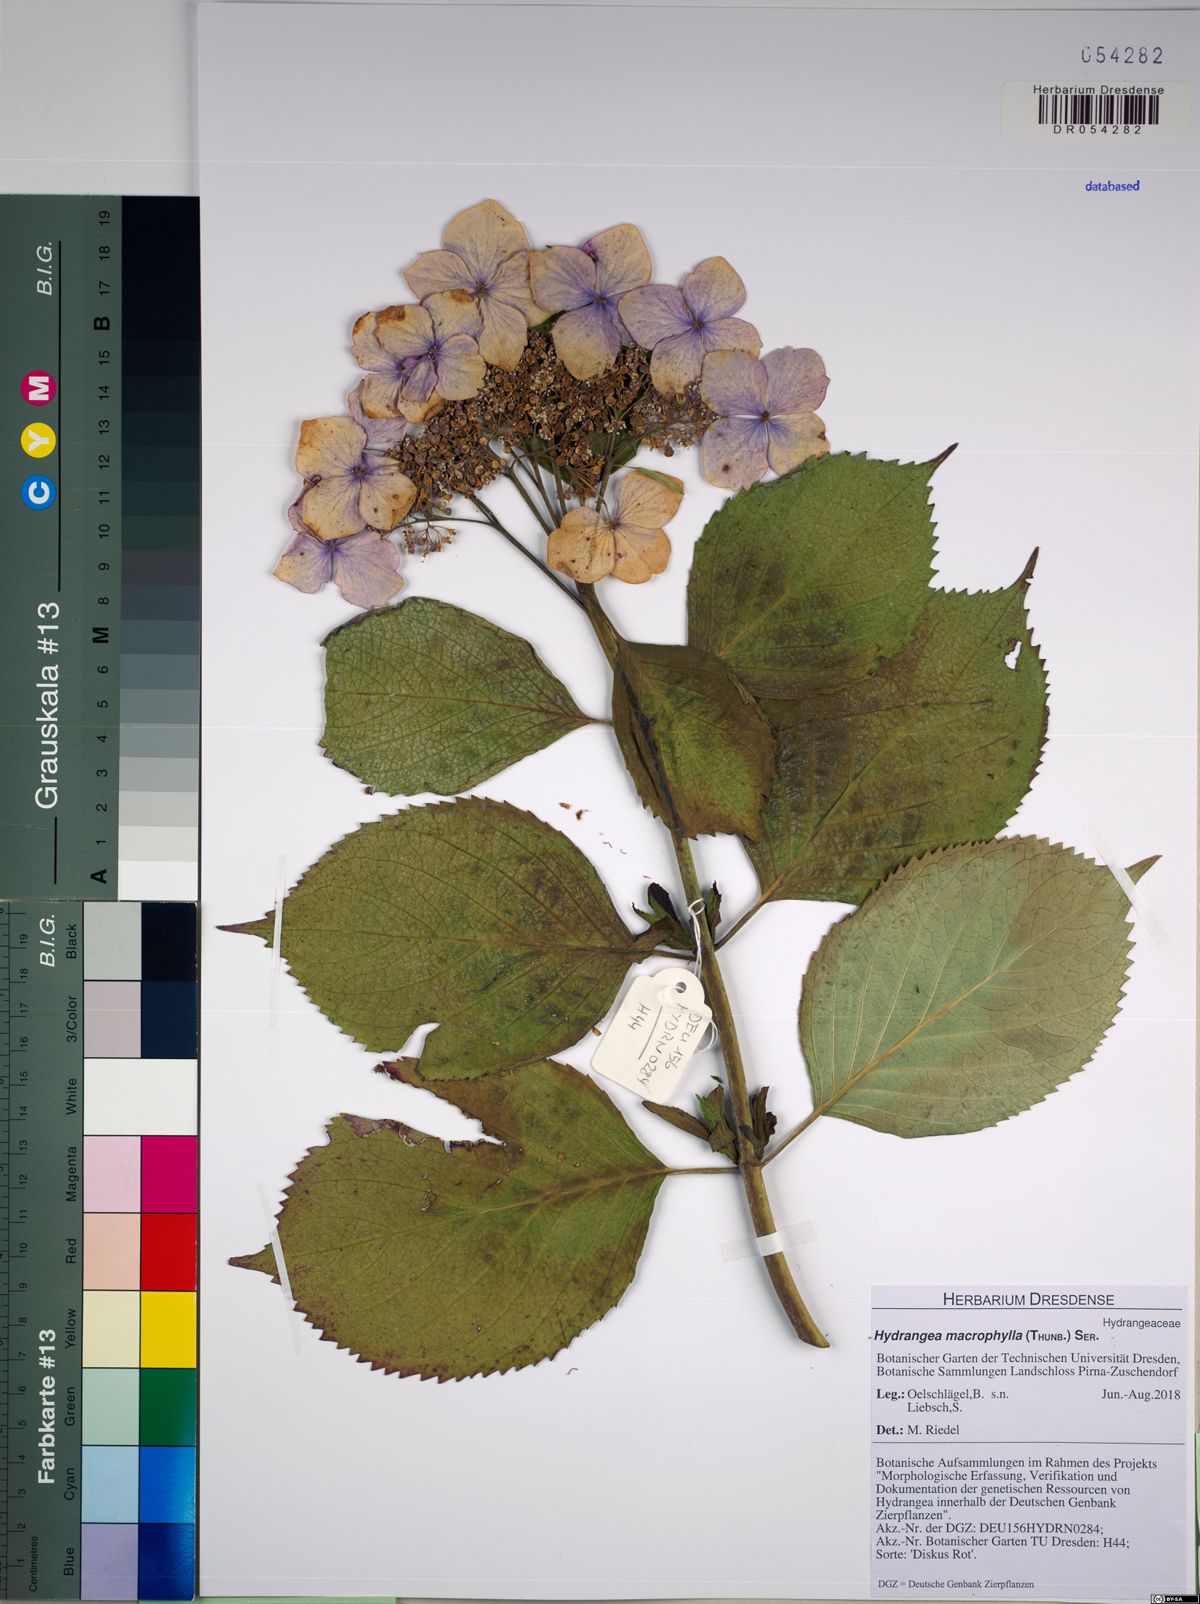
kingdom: Plantae
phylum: Tracheophyta
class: Magnoliopsida
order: Cornales
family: Hydrangeaceae
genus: Hydrangea
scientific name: Hydrangea macrophylla
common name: Hydrangea
